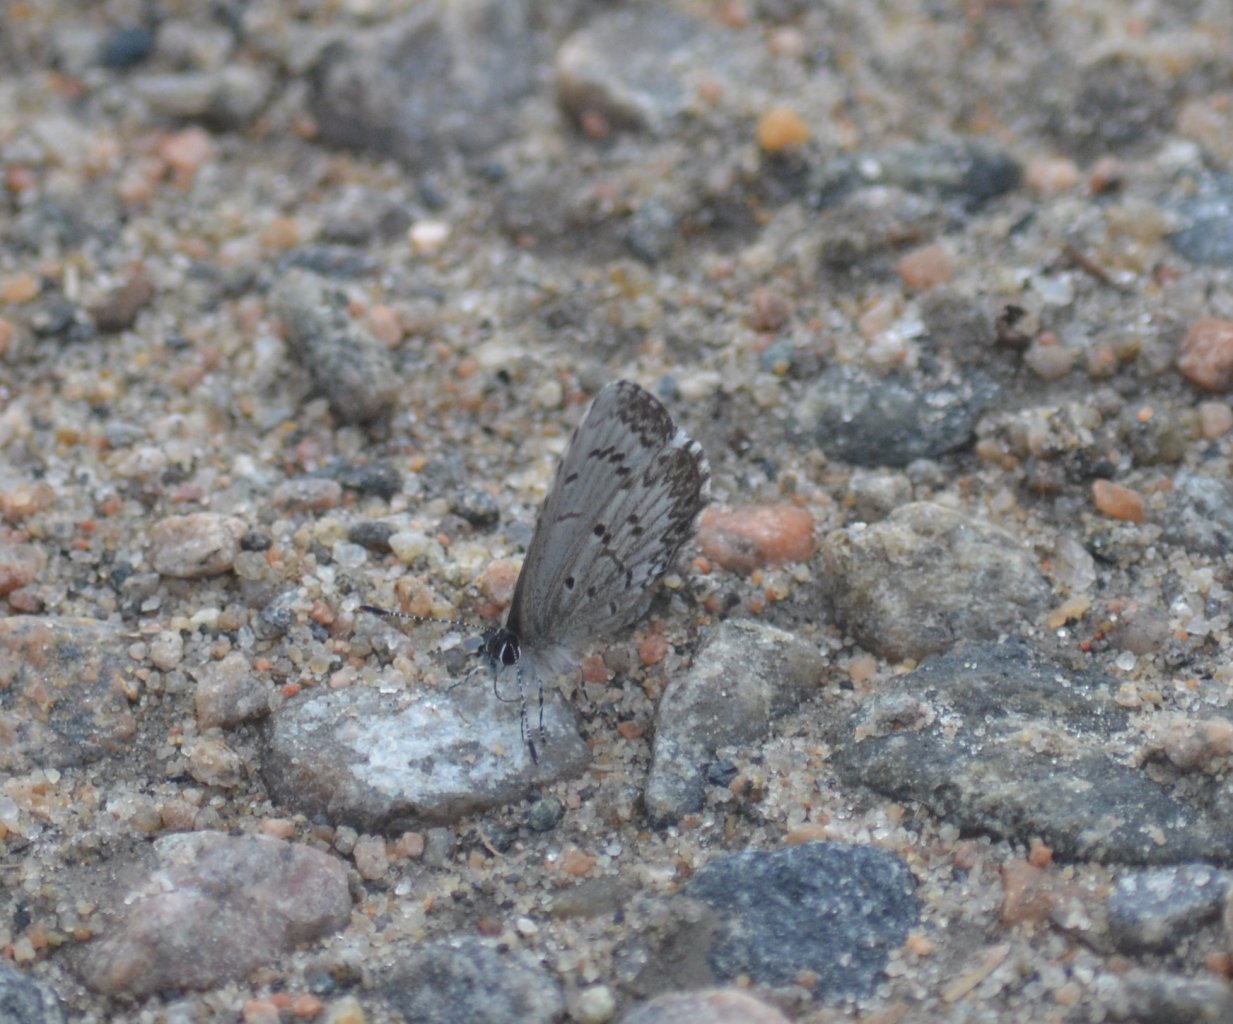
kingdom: Animalia
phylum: Arthropoda
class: Insecta
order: Lepidoptera
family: Lycaenidae
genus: Celastrina
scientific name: Celastrina lucia
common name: Northern Spring Azure
